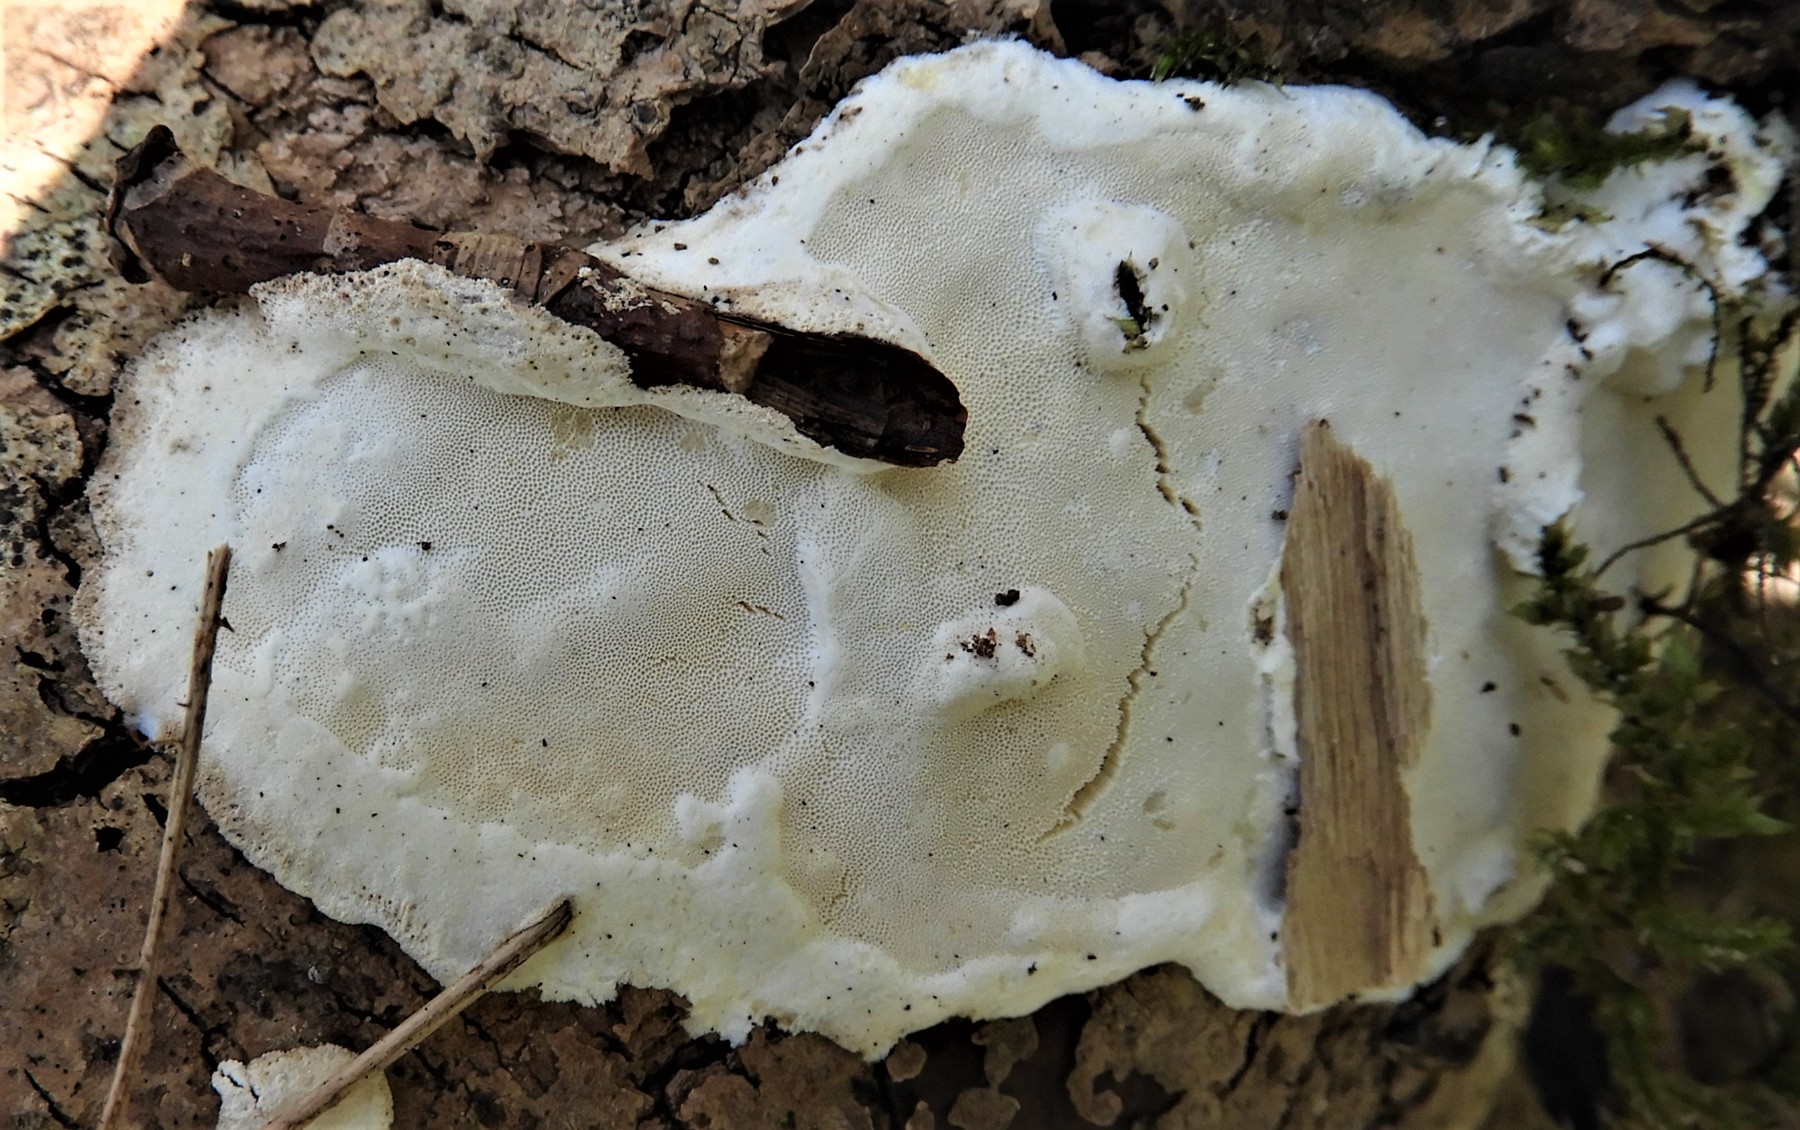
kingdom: Fungi
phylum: Basidiomycota
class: Agaricomycetes
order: Polyporales
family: Incrustoporiaceae
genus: Skeletocutis
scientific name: Skeletocutis nemoralis
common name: stor krystalporesvamp
